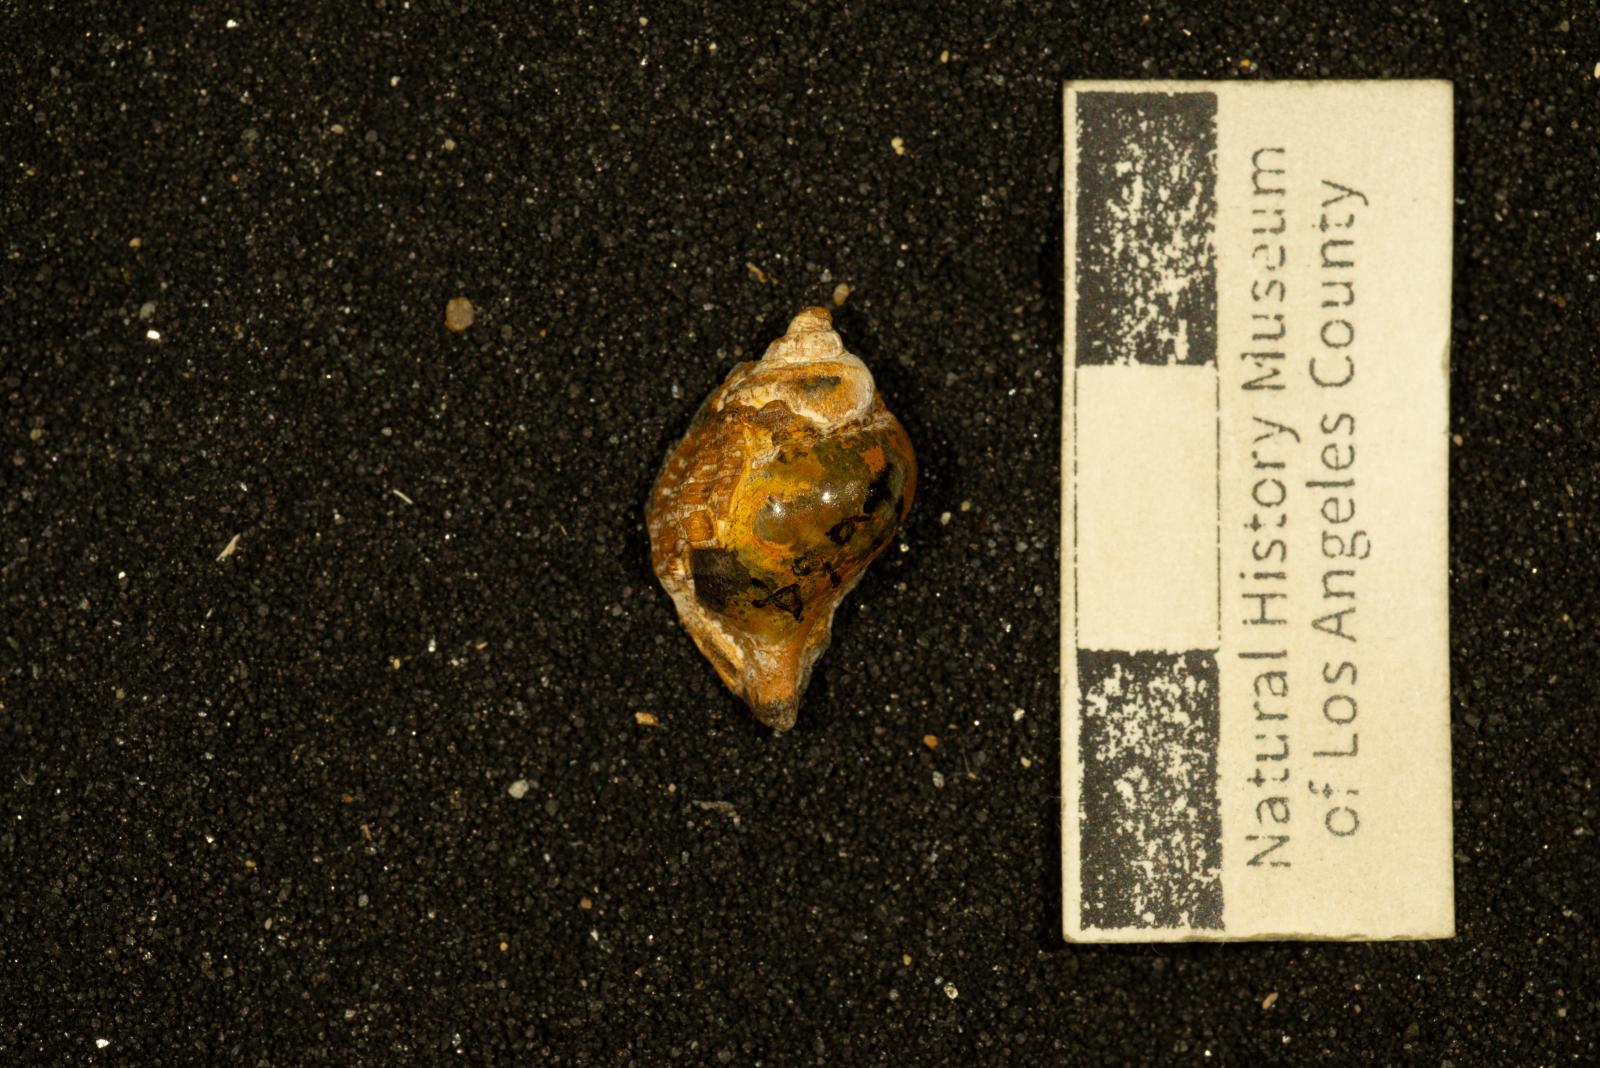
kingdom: Animalia
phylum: Mollusca
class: Gastropoda
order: Neogastropoda
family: Buccinidae
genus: Pentzia
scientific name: Pentzia Fulgur hilgardi
